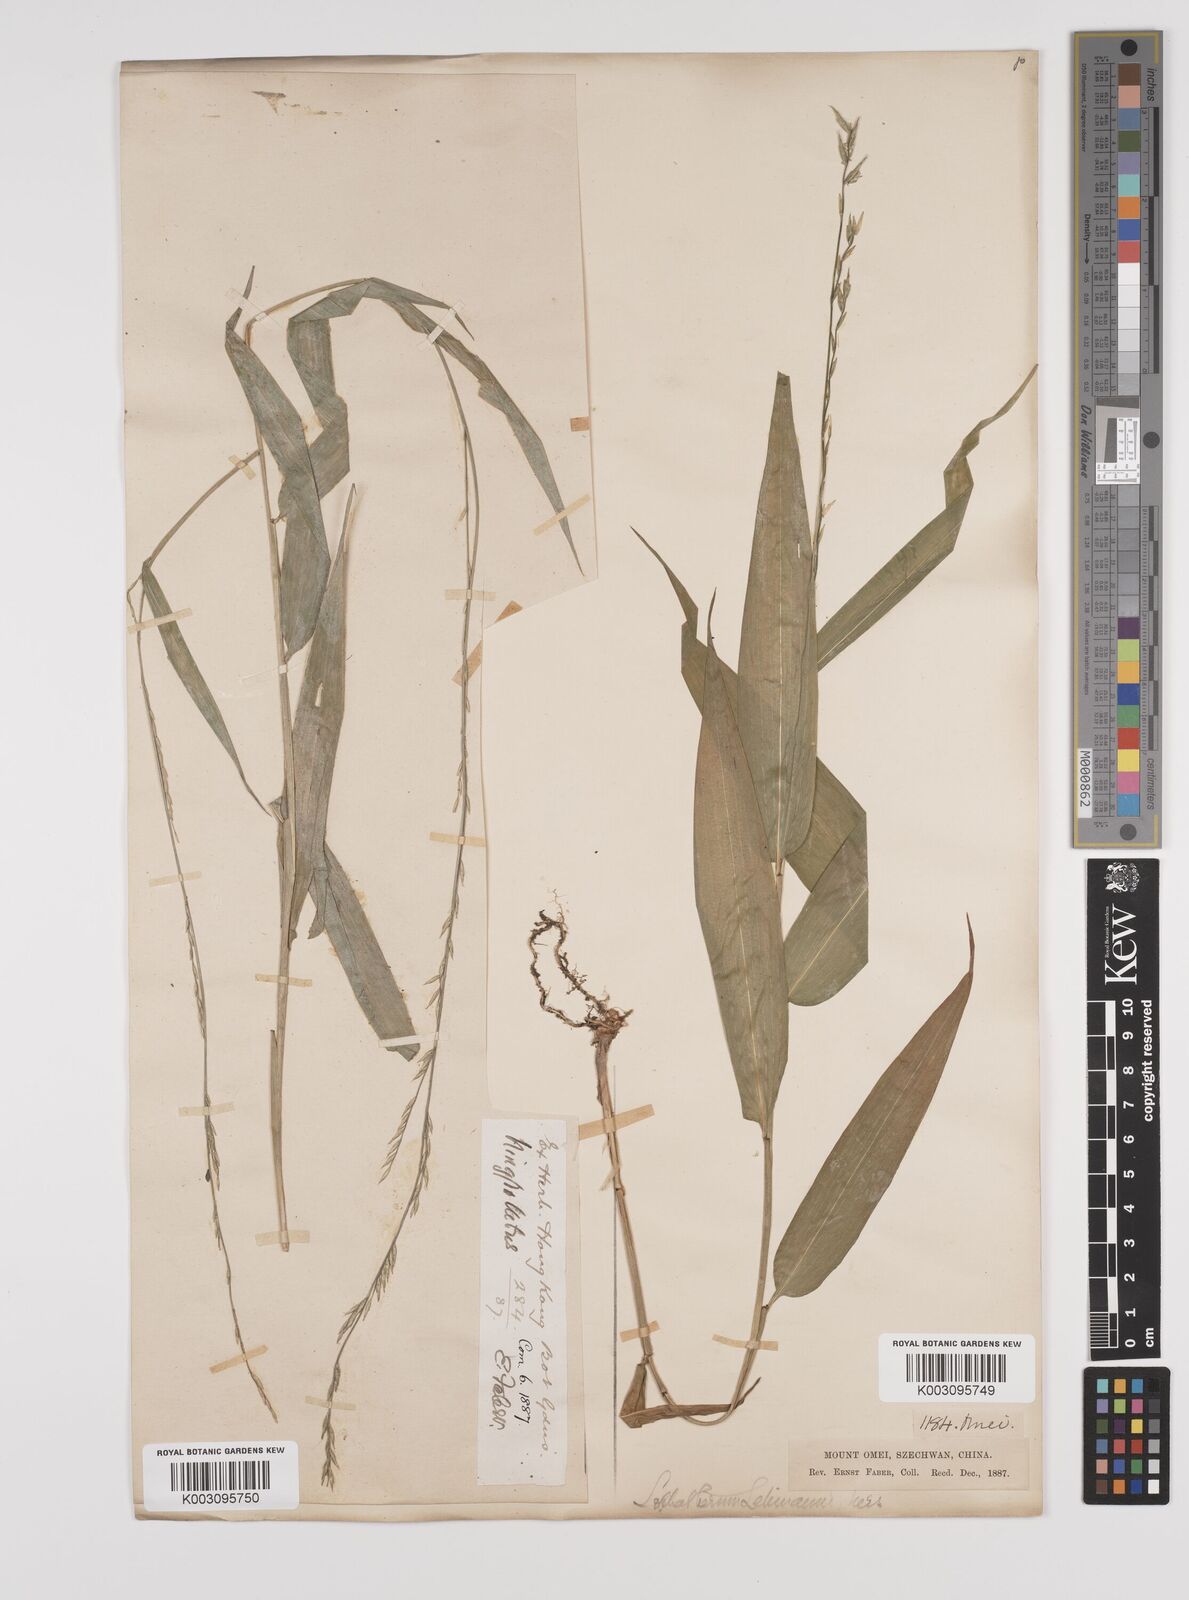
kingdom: Plantae
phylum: Tracheophyta
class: Liliopsida
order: Poales
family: Poaceae
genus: Lophatherum
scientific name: Lophatherum gracile
